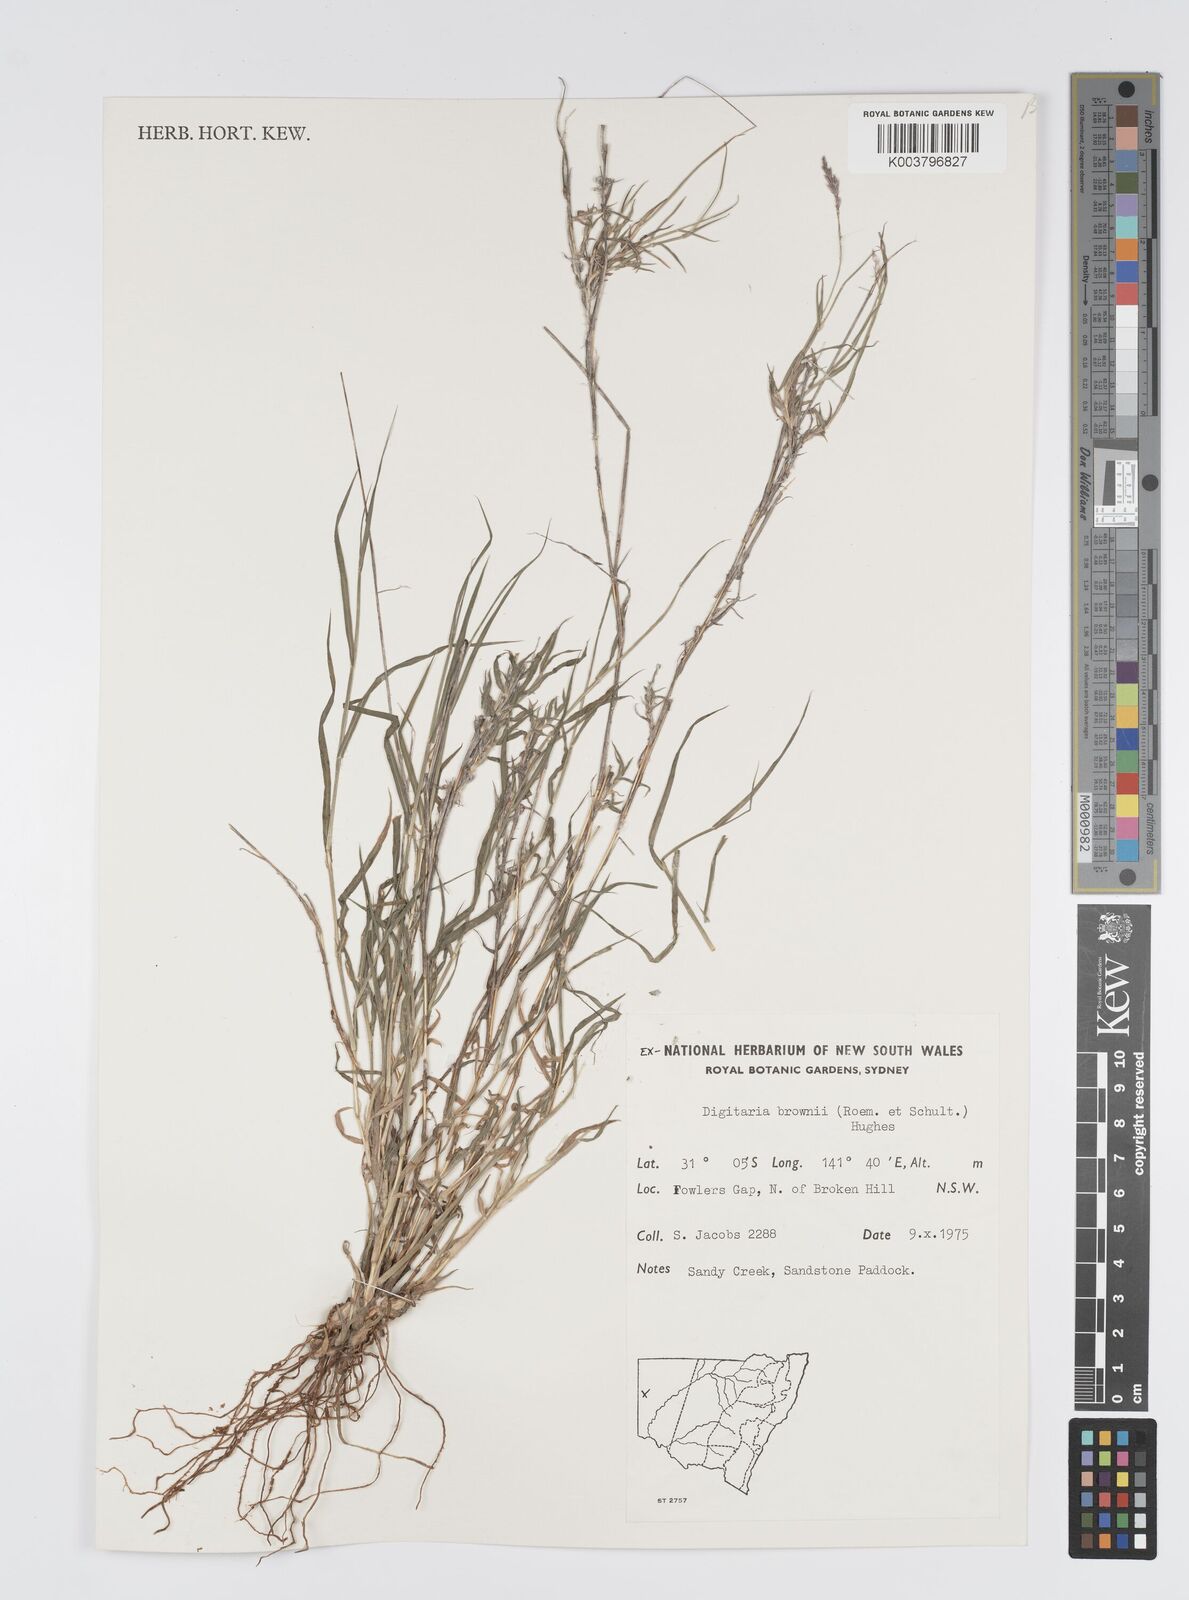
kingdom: Plantae
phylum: Tracheophyta
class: Liliopsida
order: Poales
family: Poaceae
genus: Digitaria
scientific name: Digitaria brownii
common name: Cotton grass
